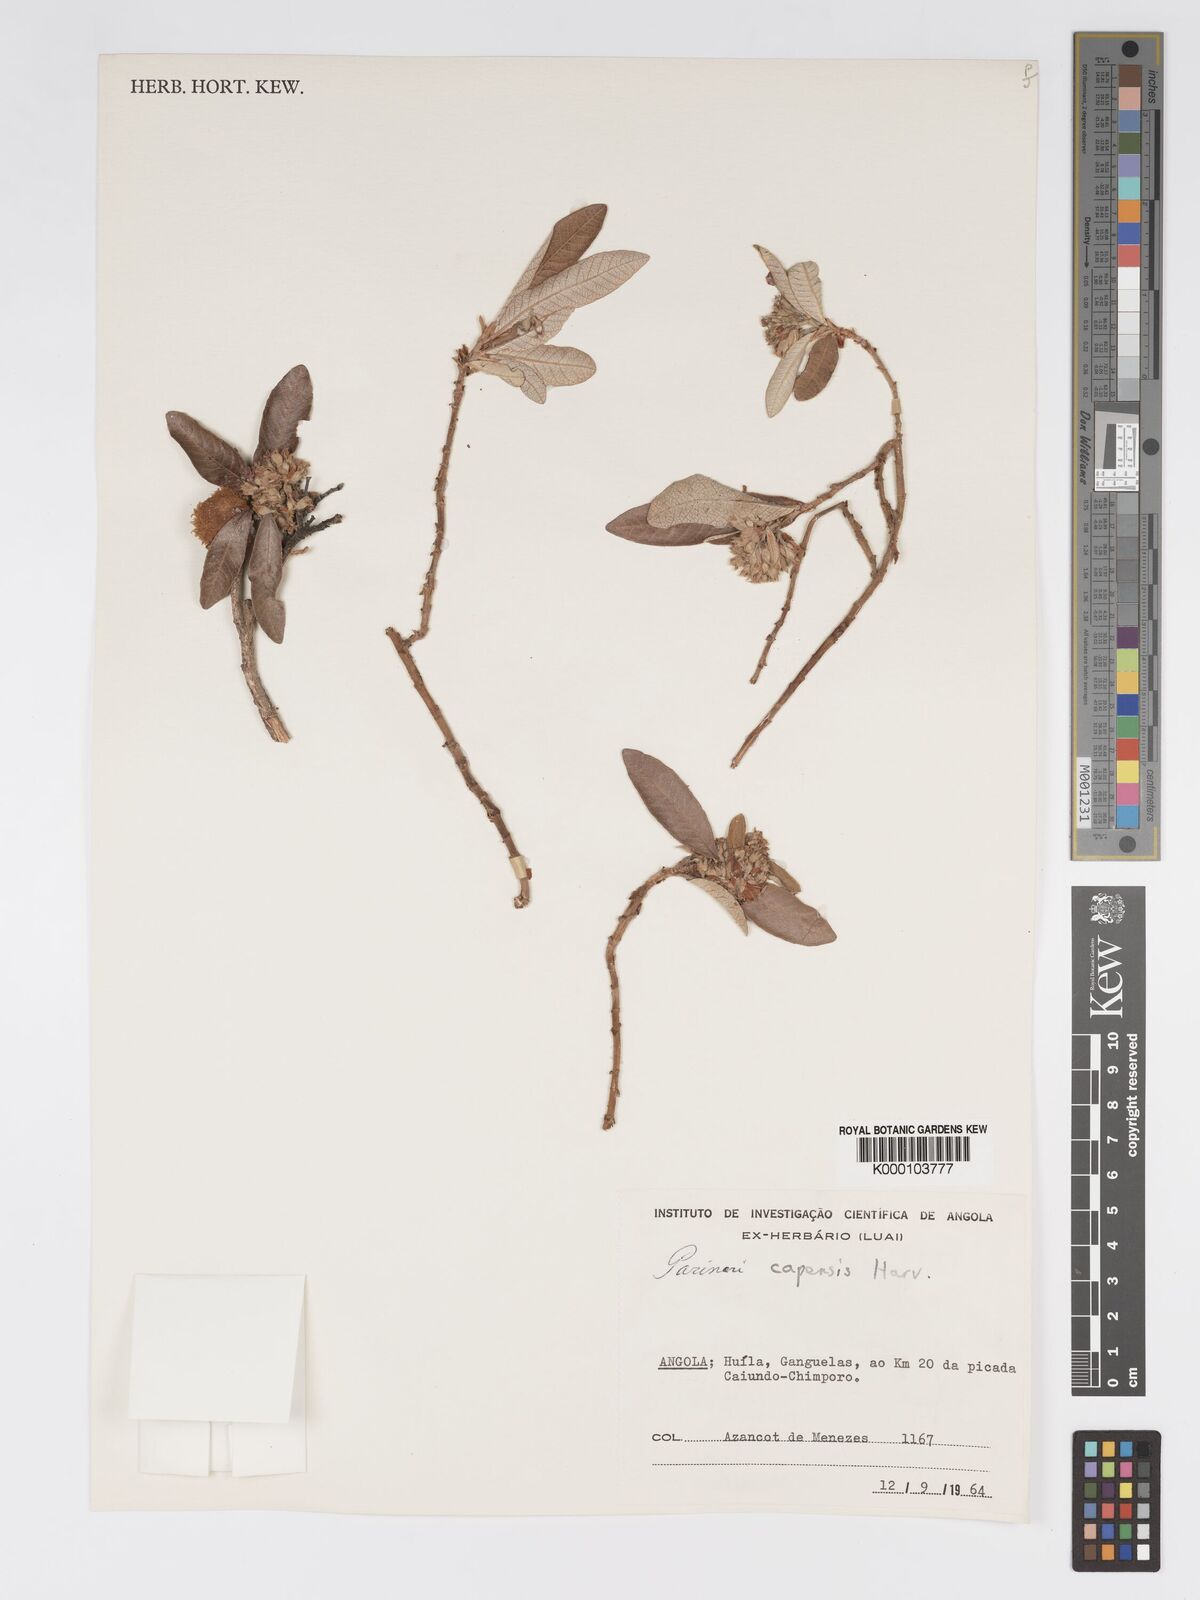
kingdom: Plantae
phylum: Tracheophyta
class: Magnoliopsida
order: Malpighiales
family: Chrysobalanaceae
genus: Parinari
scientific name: Parinari capensis
